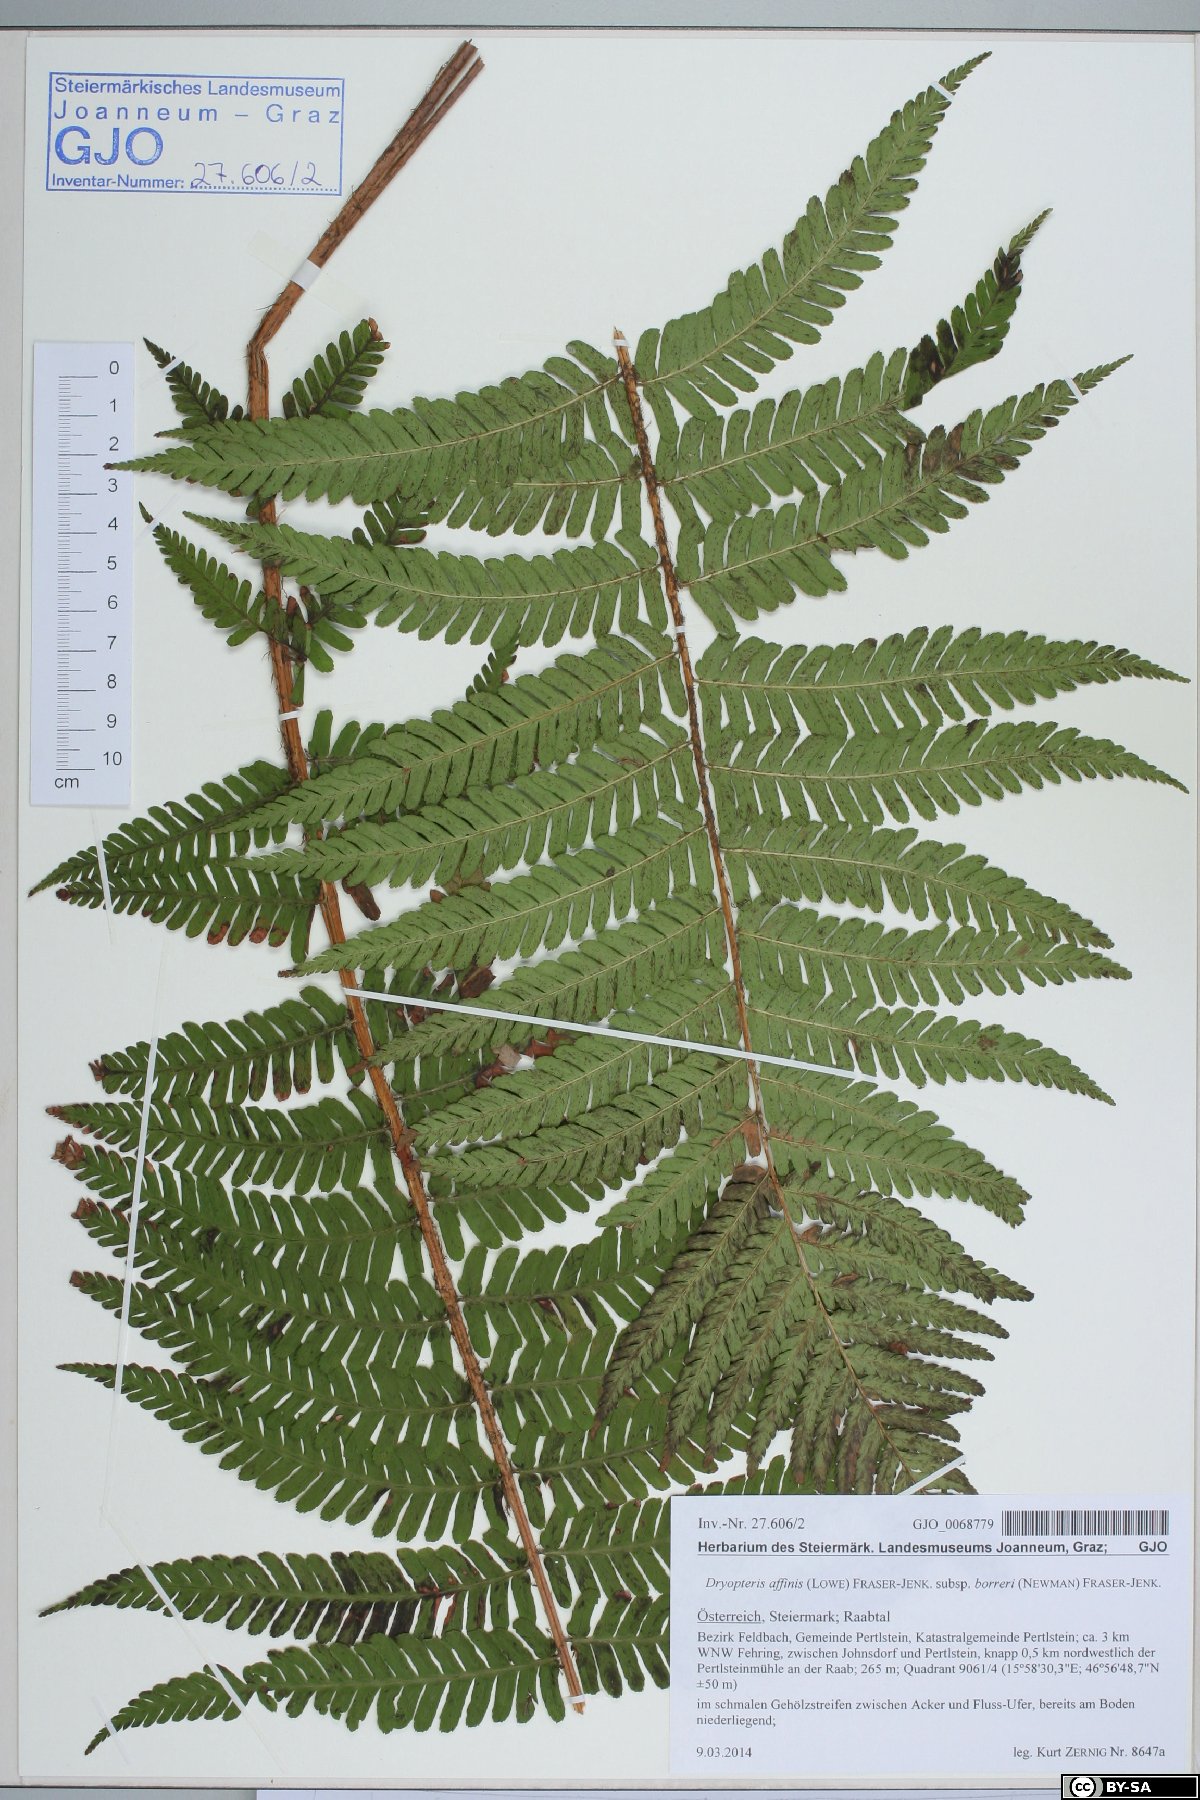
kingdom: Plantae
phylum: Tracheophyta
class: Polypodiopsida
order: Polypodiales
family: Dryopteridaceae
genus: Dryopteris
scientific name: Dryopteris borreri
